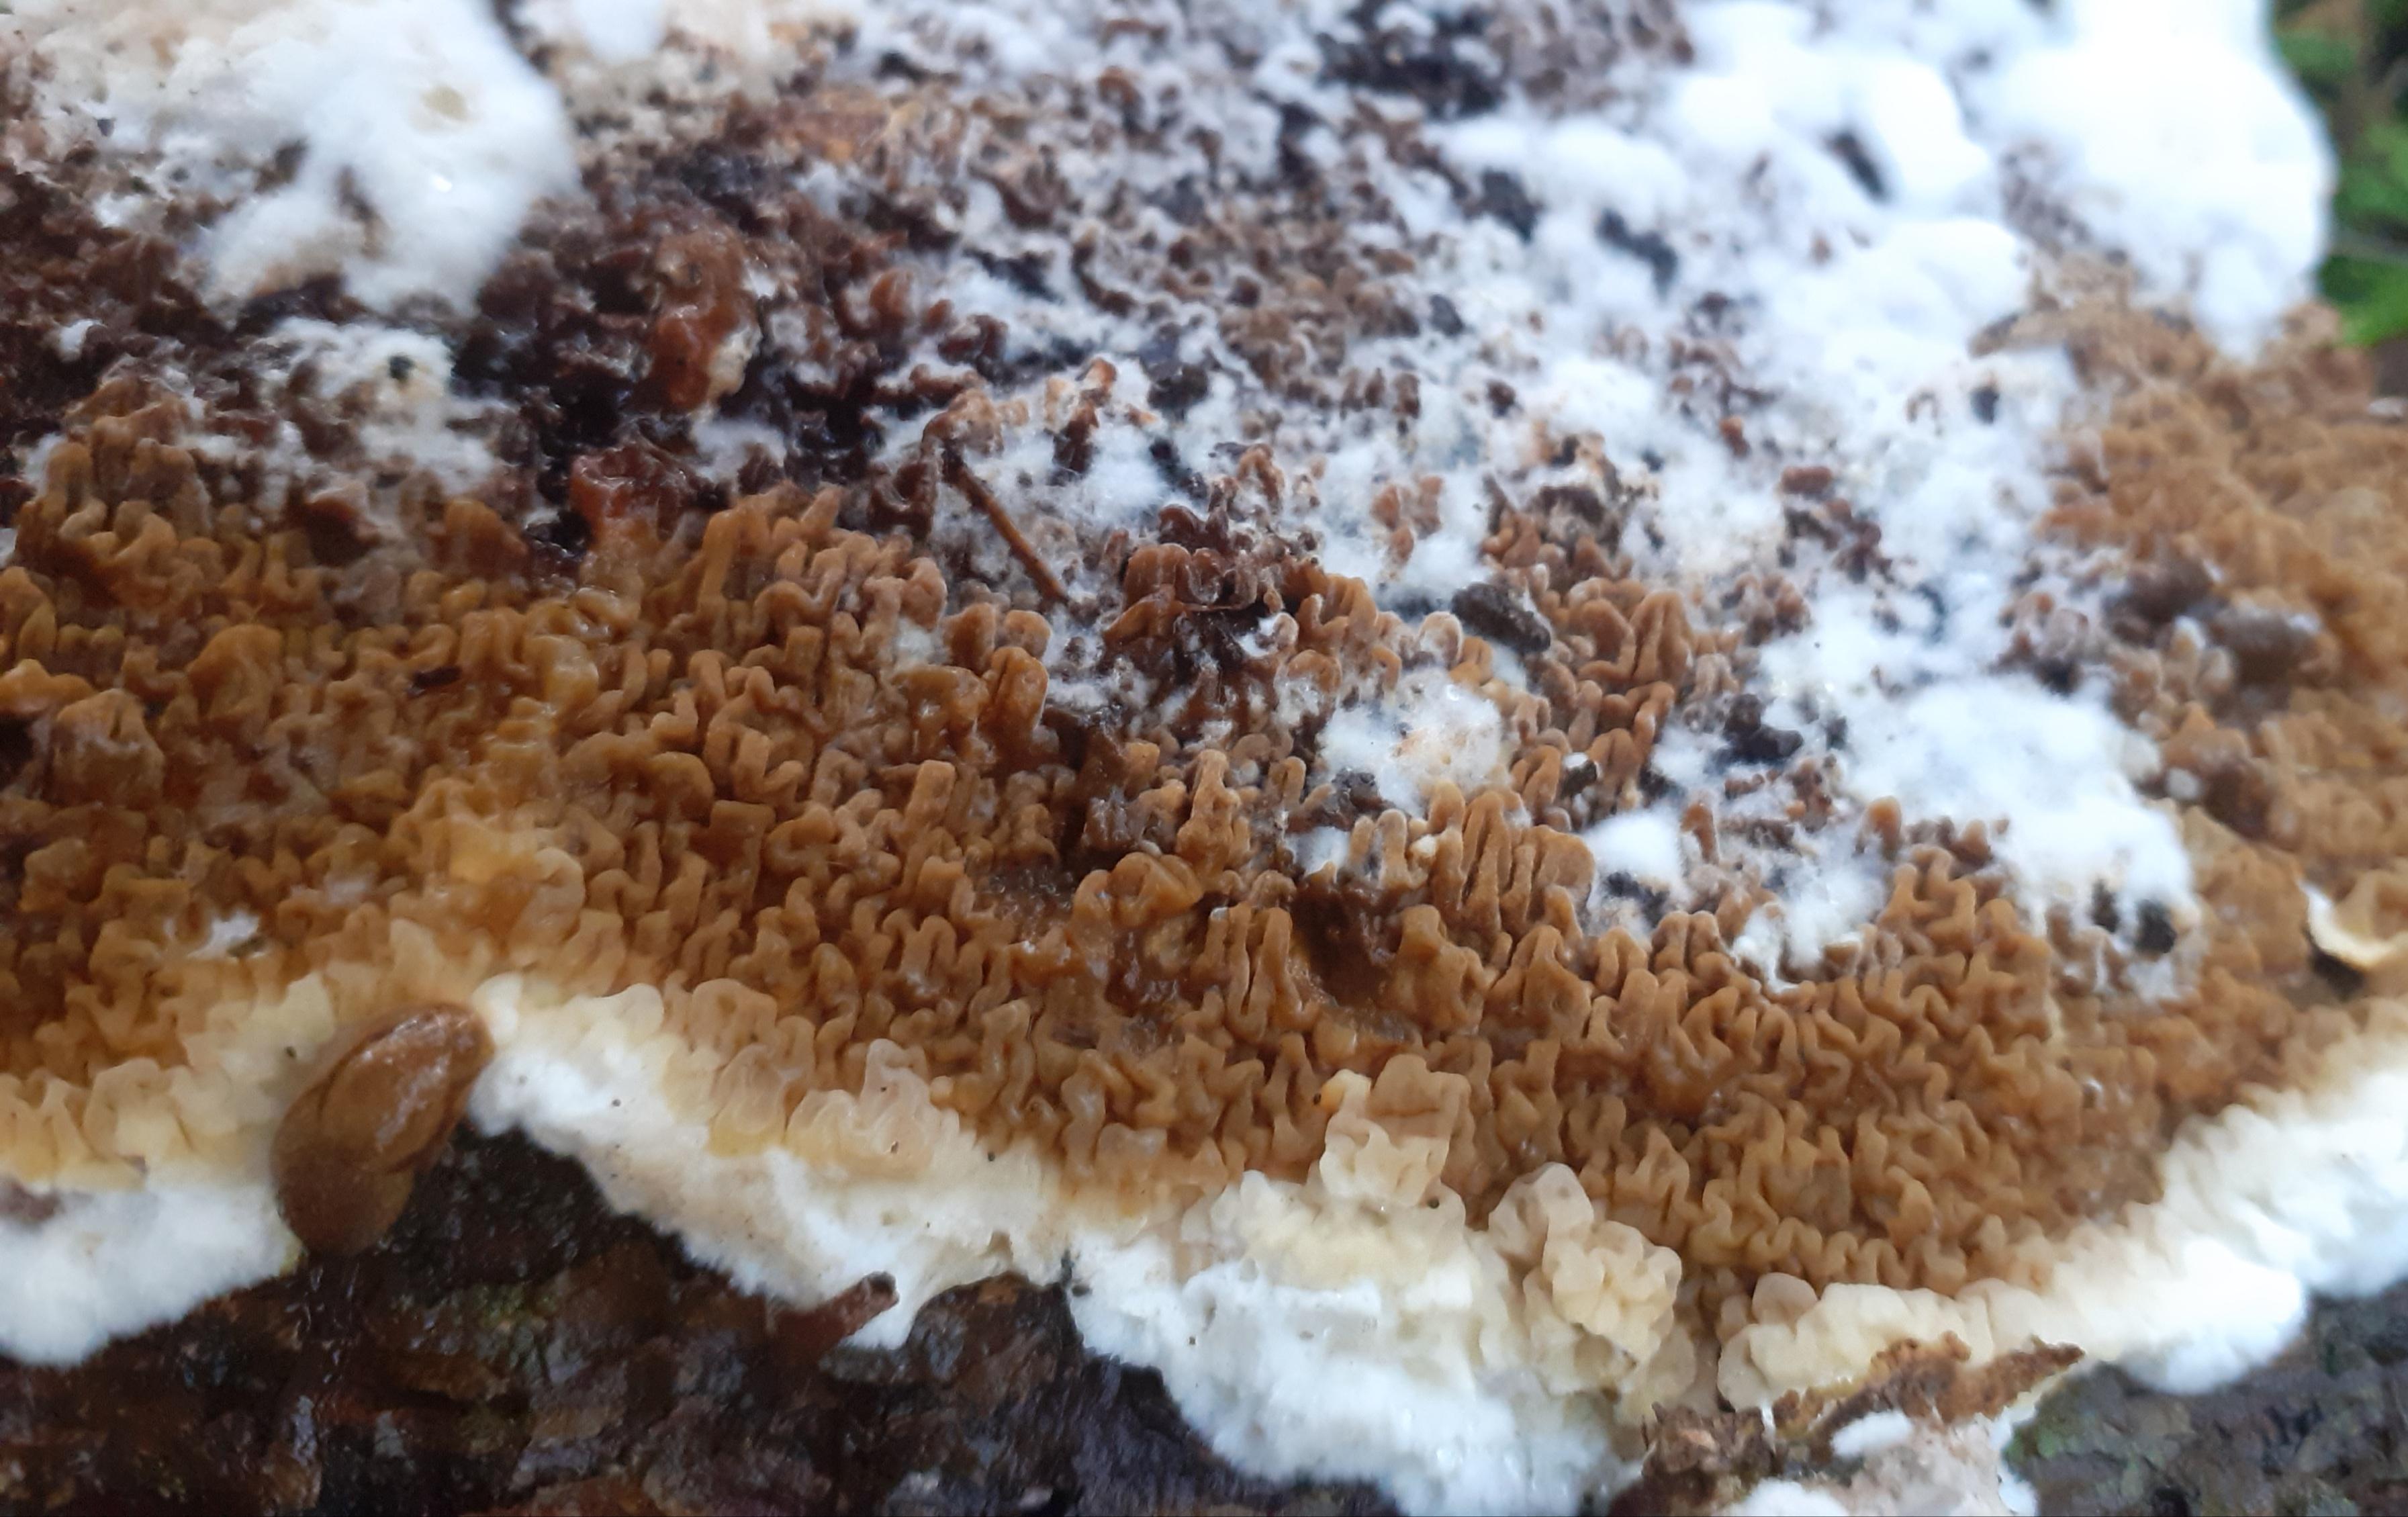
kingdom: Fungi
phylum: Basidiomycota
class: Agaricomycetes
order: Boletales
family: Serpulaceae
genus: Serpula
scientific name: Serpula himantioides
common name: tyndkødet hussvamp
